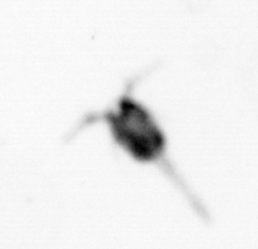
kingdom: Animalia
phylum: Arthropoda
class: Copepoda
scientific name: Copepoda
